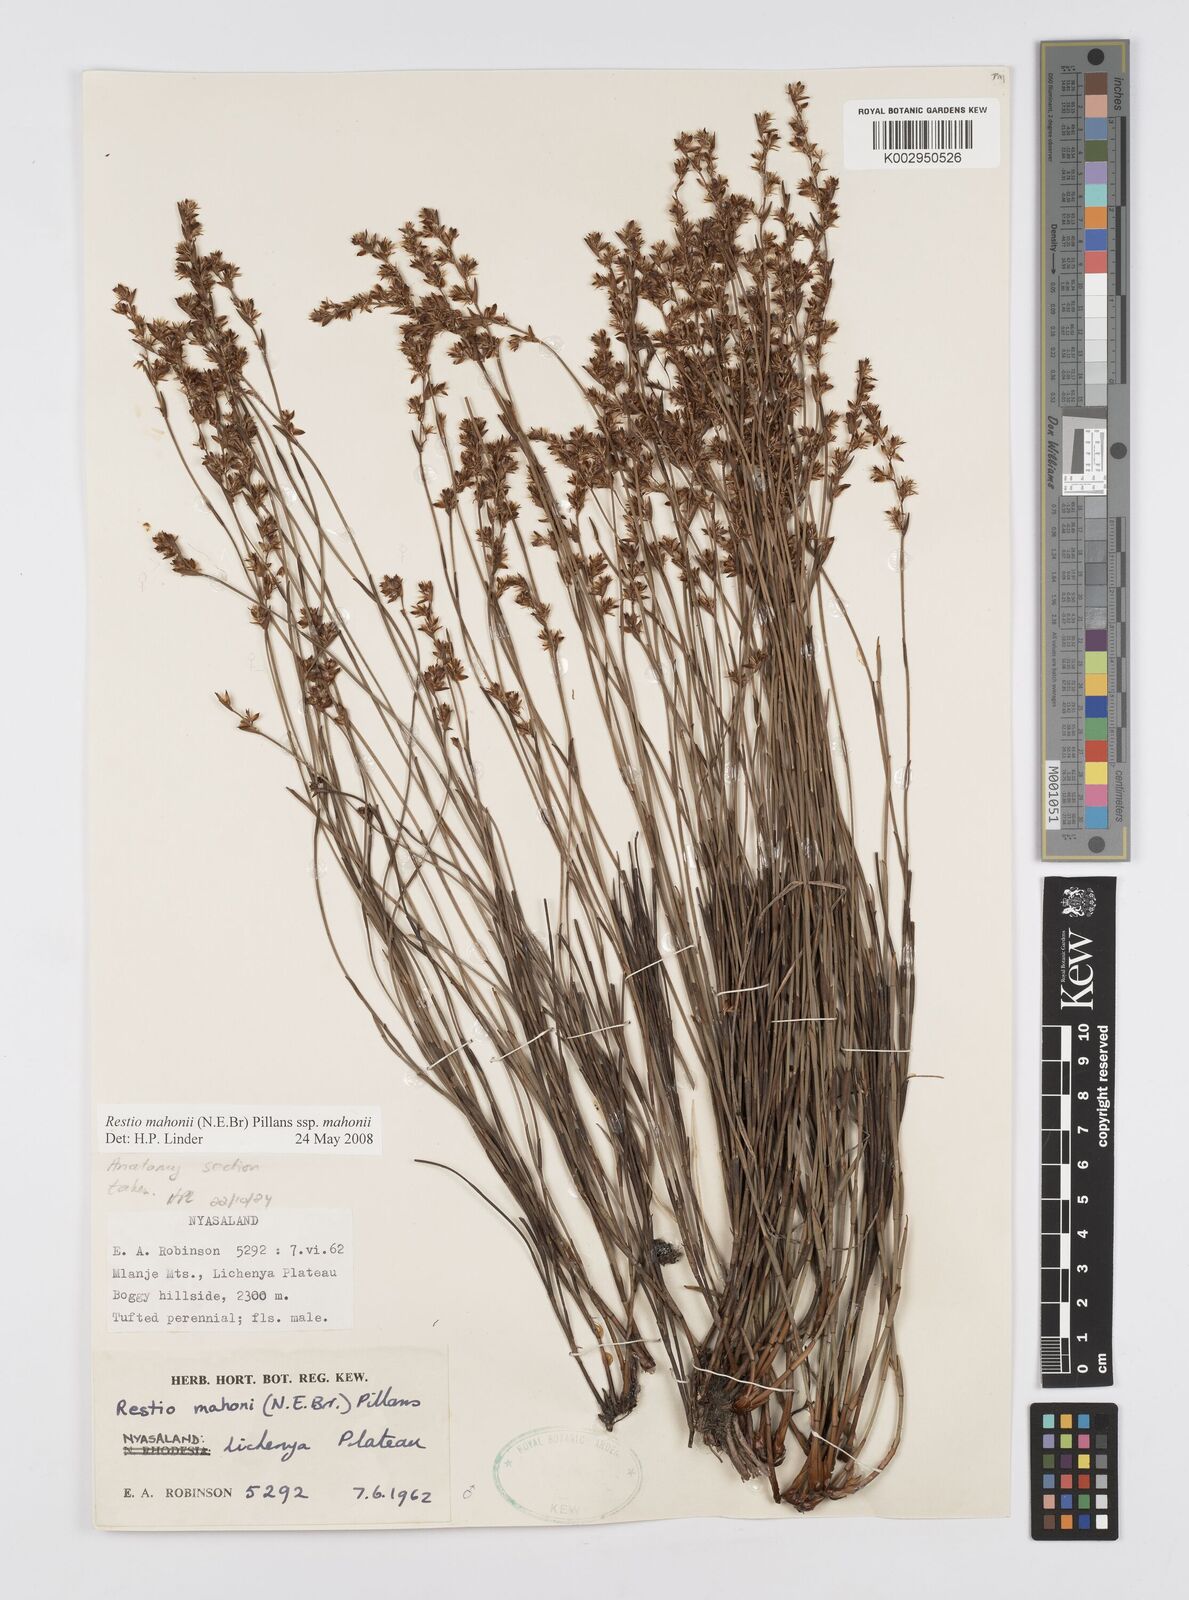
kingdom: Plantae
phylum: Tracheophyta
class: Liliopsida
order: Poales
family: Restionaceae
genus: Platycaulos
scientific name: Platycaulos mahonii
